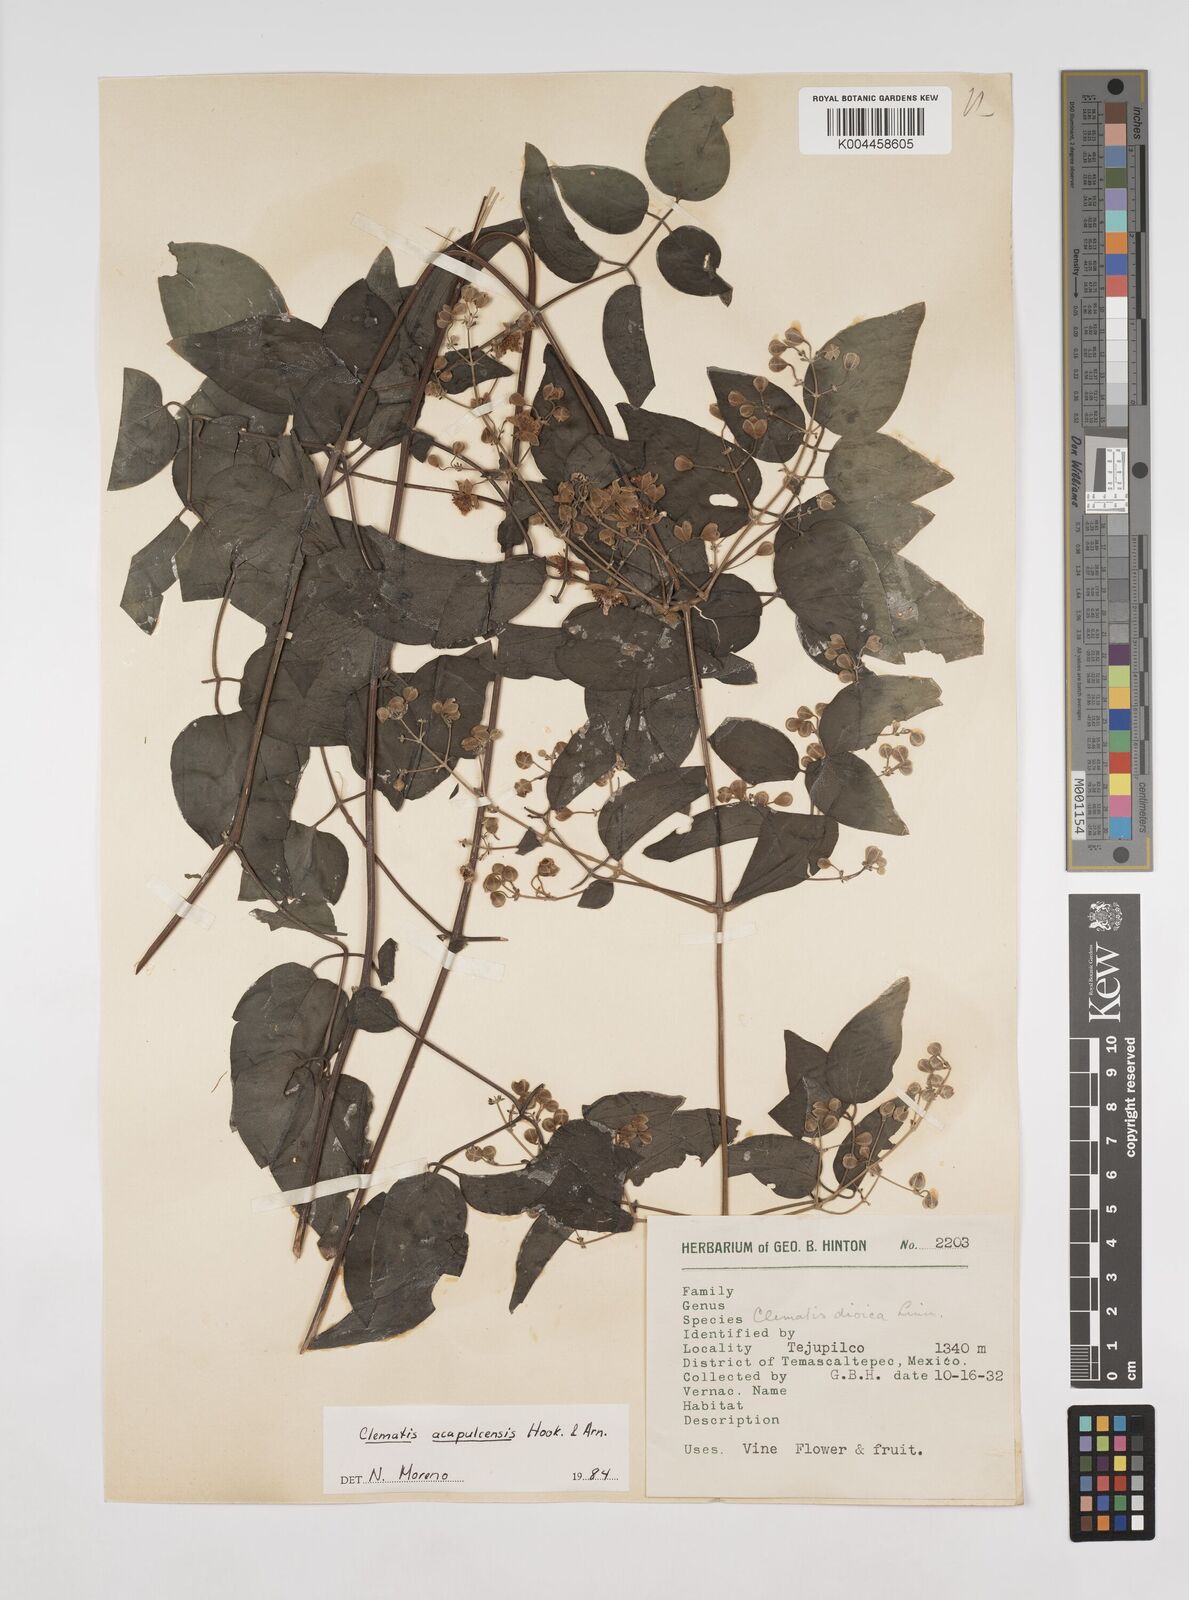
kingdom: Plantae
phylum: Tracheophyta
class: Magnoliopsida
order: Ranunculales
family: Ranunculaceae
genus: Clematis
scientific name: Clematis acapulcensis
